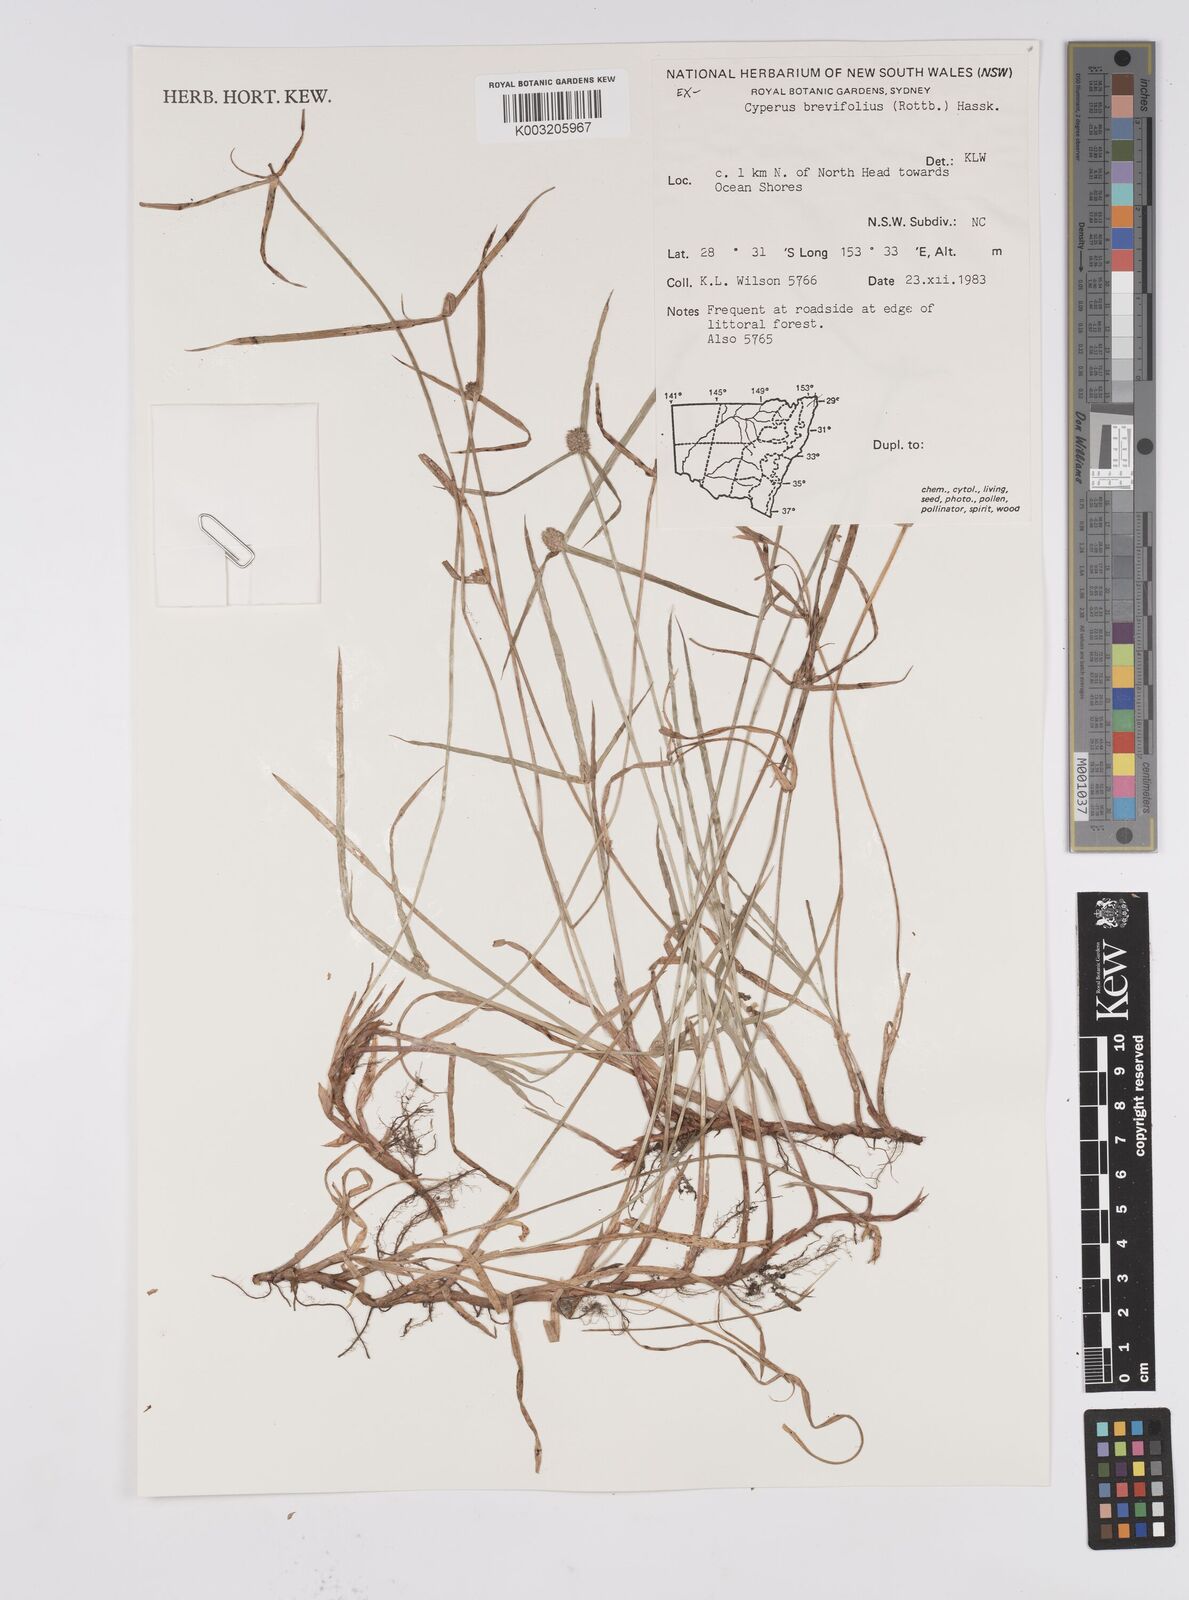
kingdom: Plantae
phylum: Tracheophyta
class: Liliopsida
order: Poales
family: Cyperaceae
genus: Cyperus
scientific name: Cyperus brevifolius
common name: Globe kyllinga
